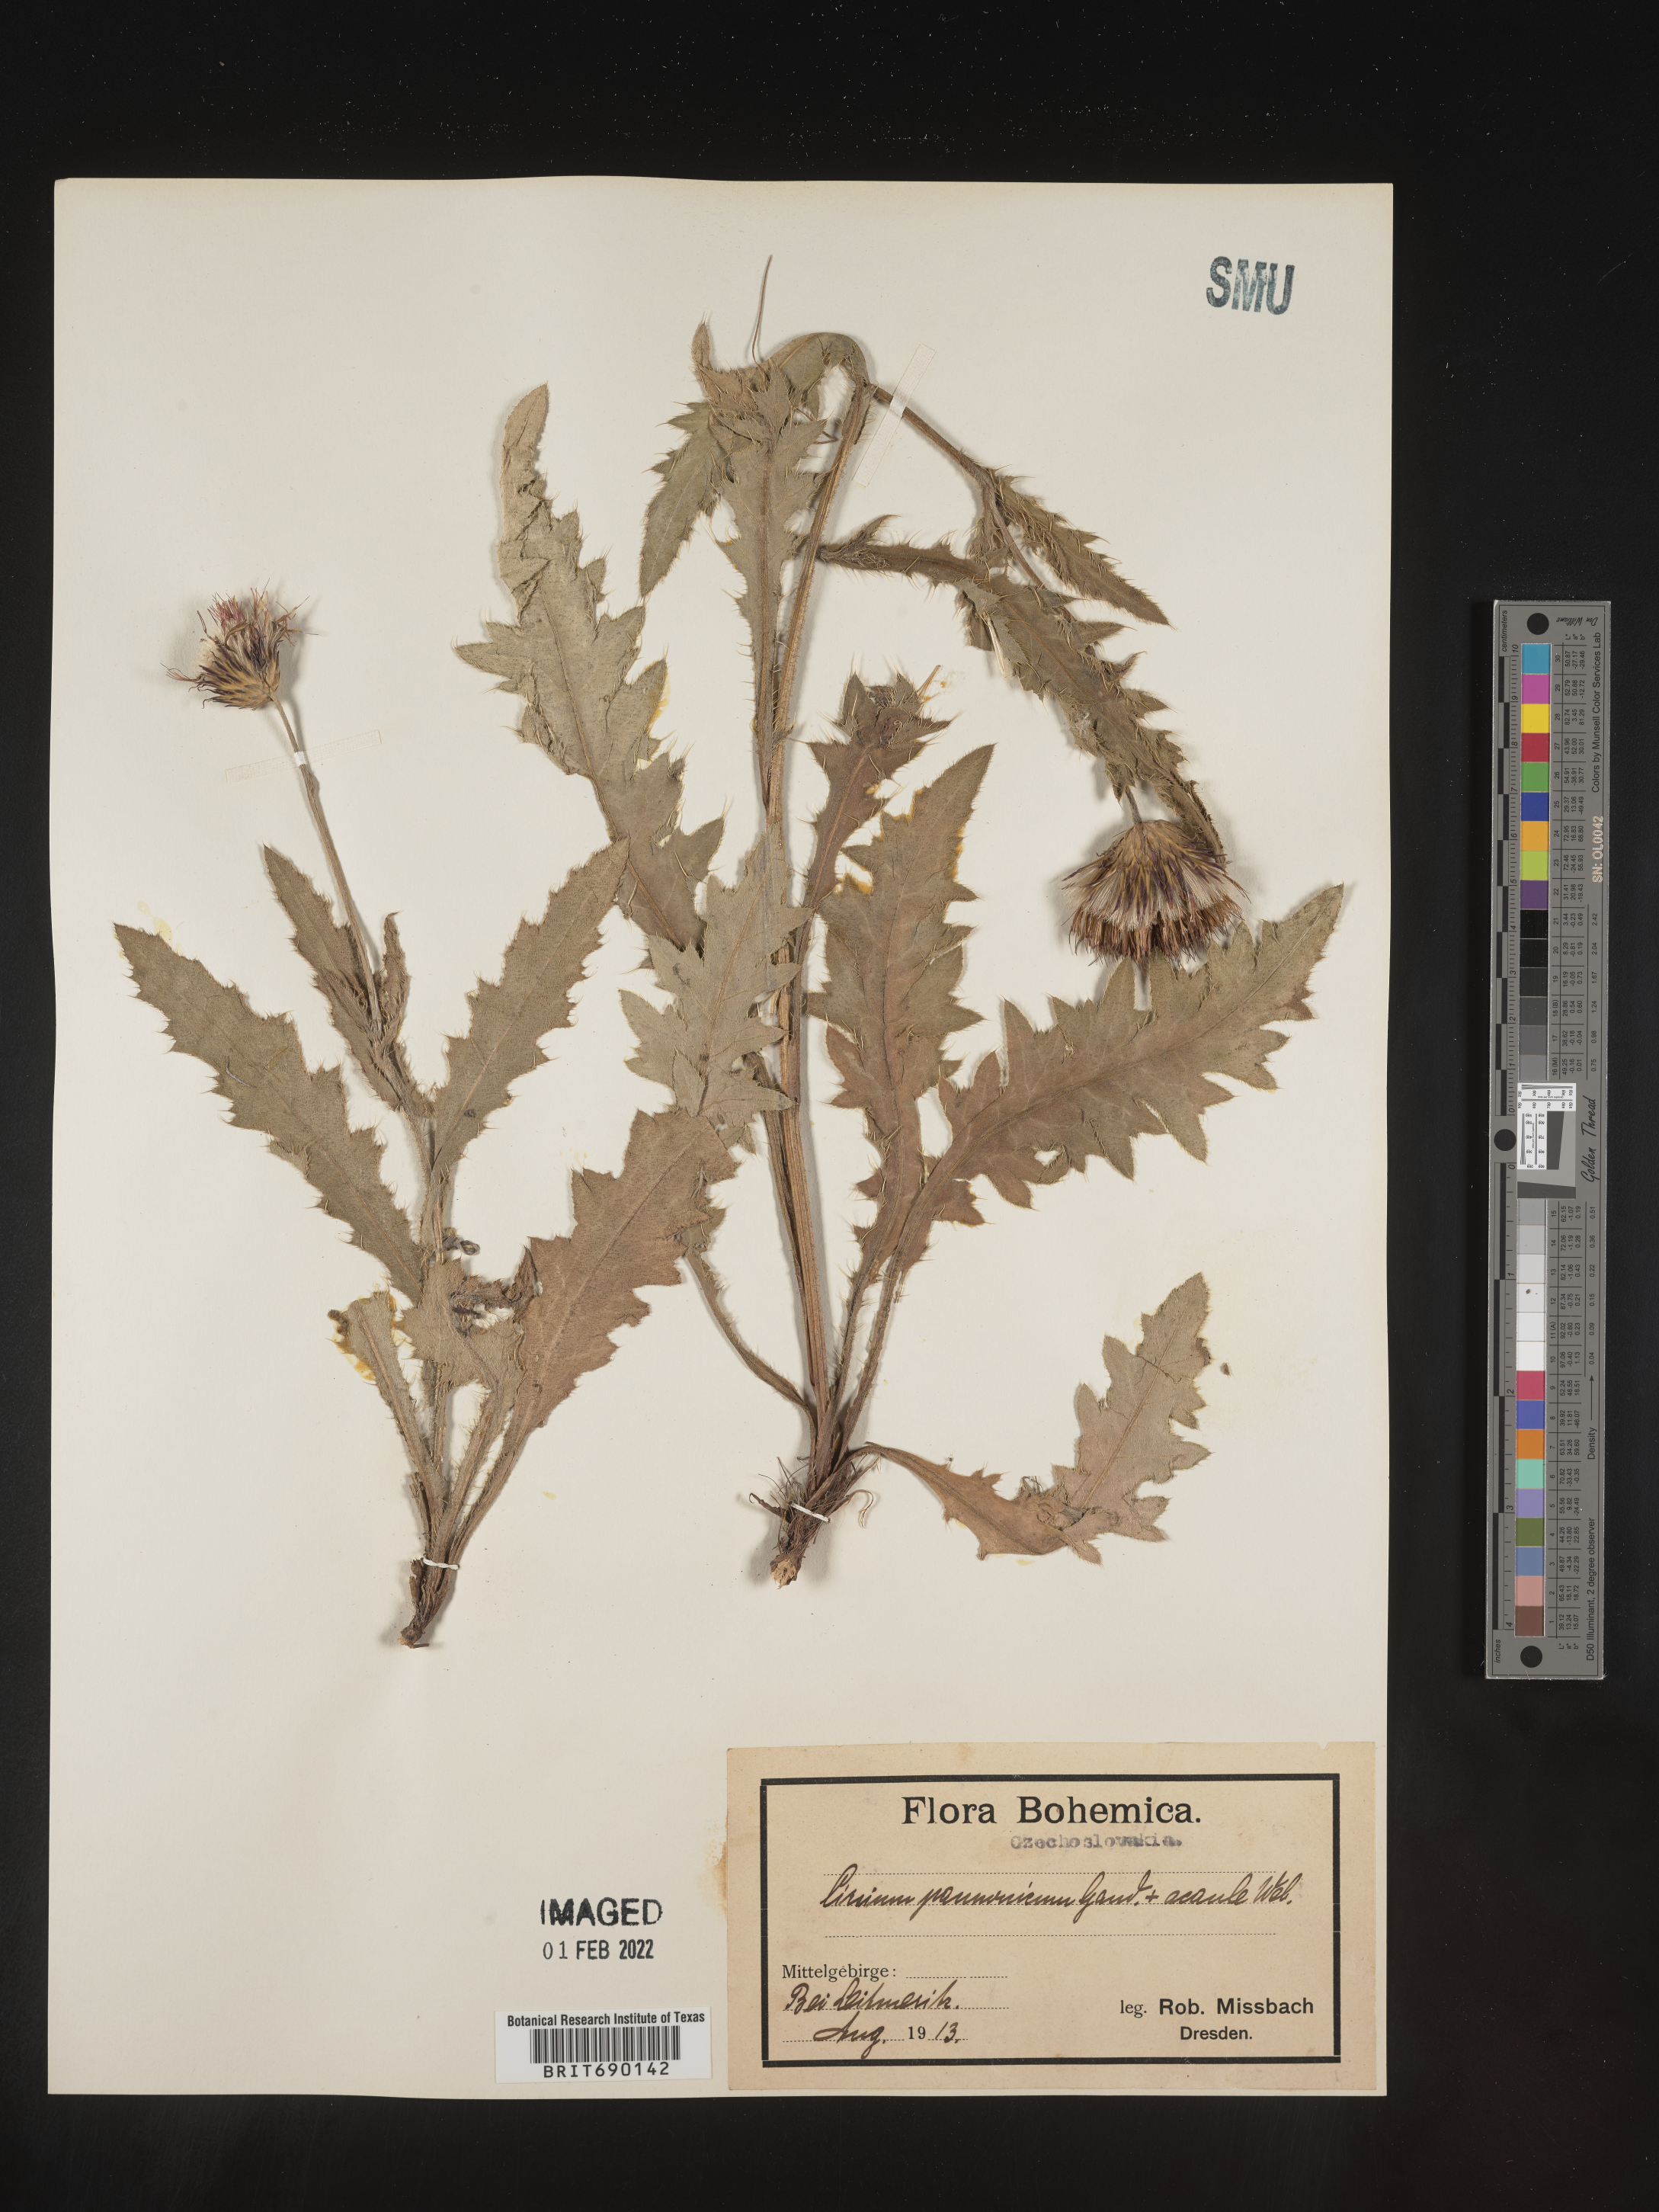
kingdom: Plantae
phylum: Tracheophyta
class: Magnoliopsida
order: Asterales
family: Asteraceae
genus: Cirsium
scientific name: Cirsium
